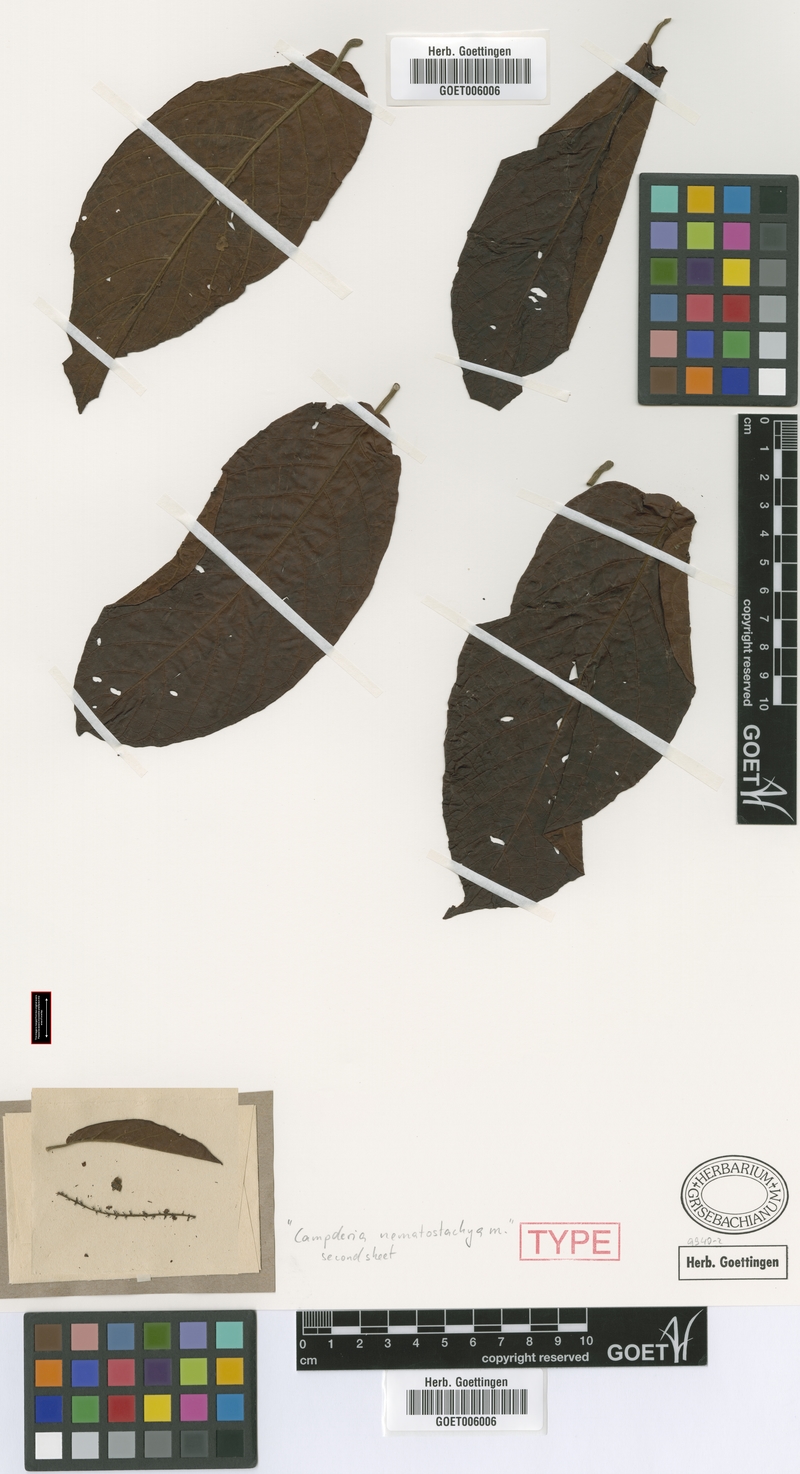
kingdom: Plantae
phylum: Tracheophyta
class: Magnoliopsida
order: Caryophyllales
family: Polygonaceae
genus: Coccoloba
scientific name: Coccoloba manzinellensis
